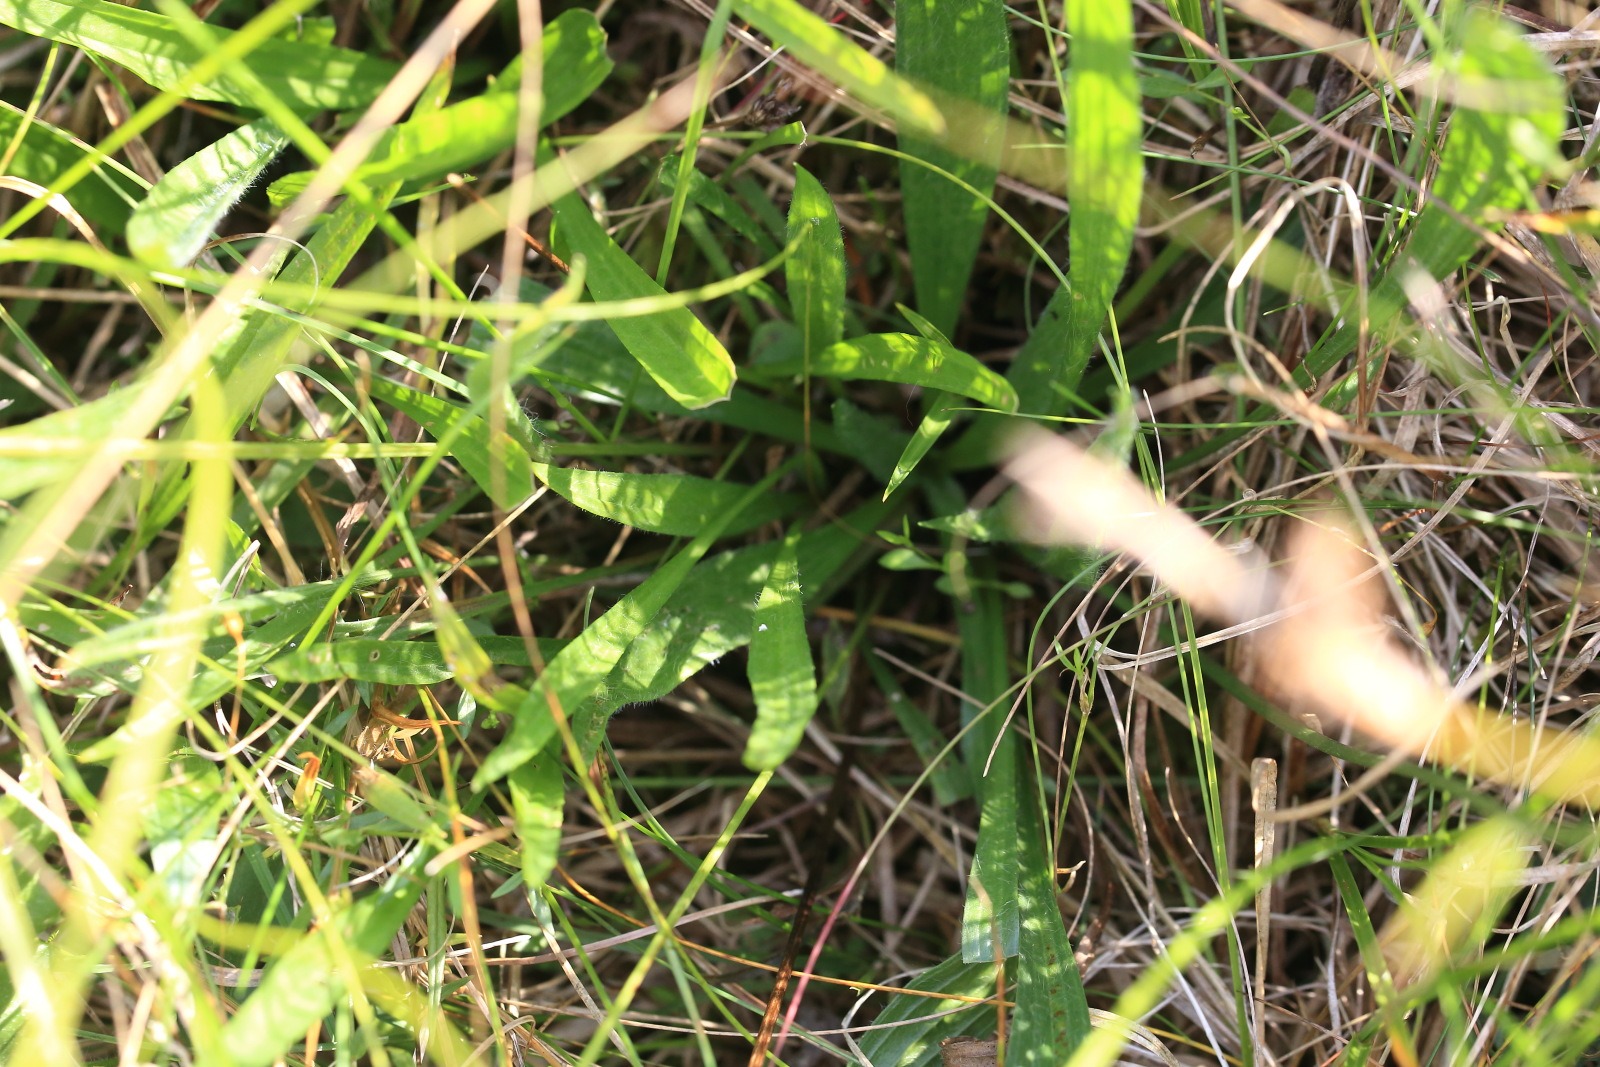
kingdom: Plantae
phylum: Tracheophyta
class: Magnoliopsida
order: Lamiales
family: Plantaginaceae
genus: Plantago
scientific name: Plantago lanceolata
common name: Lancet-vejbred
